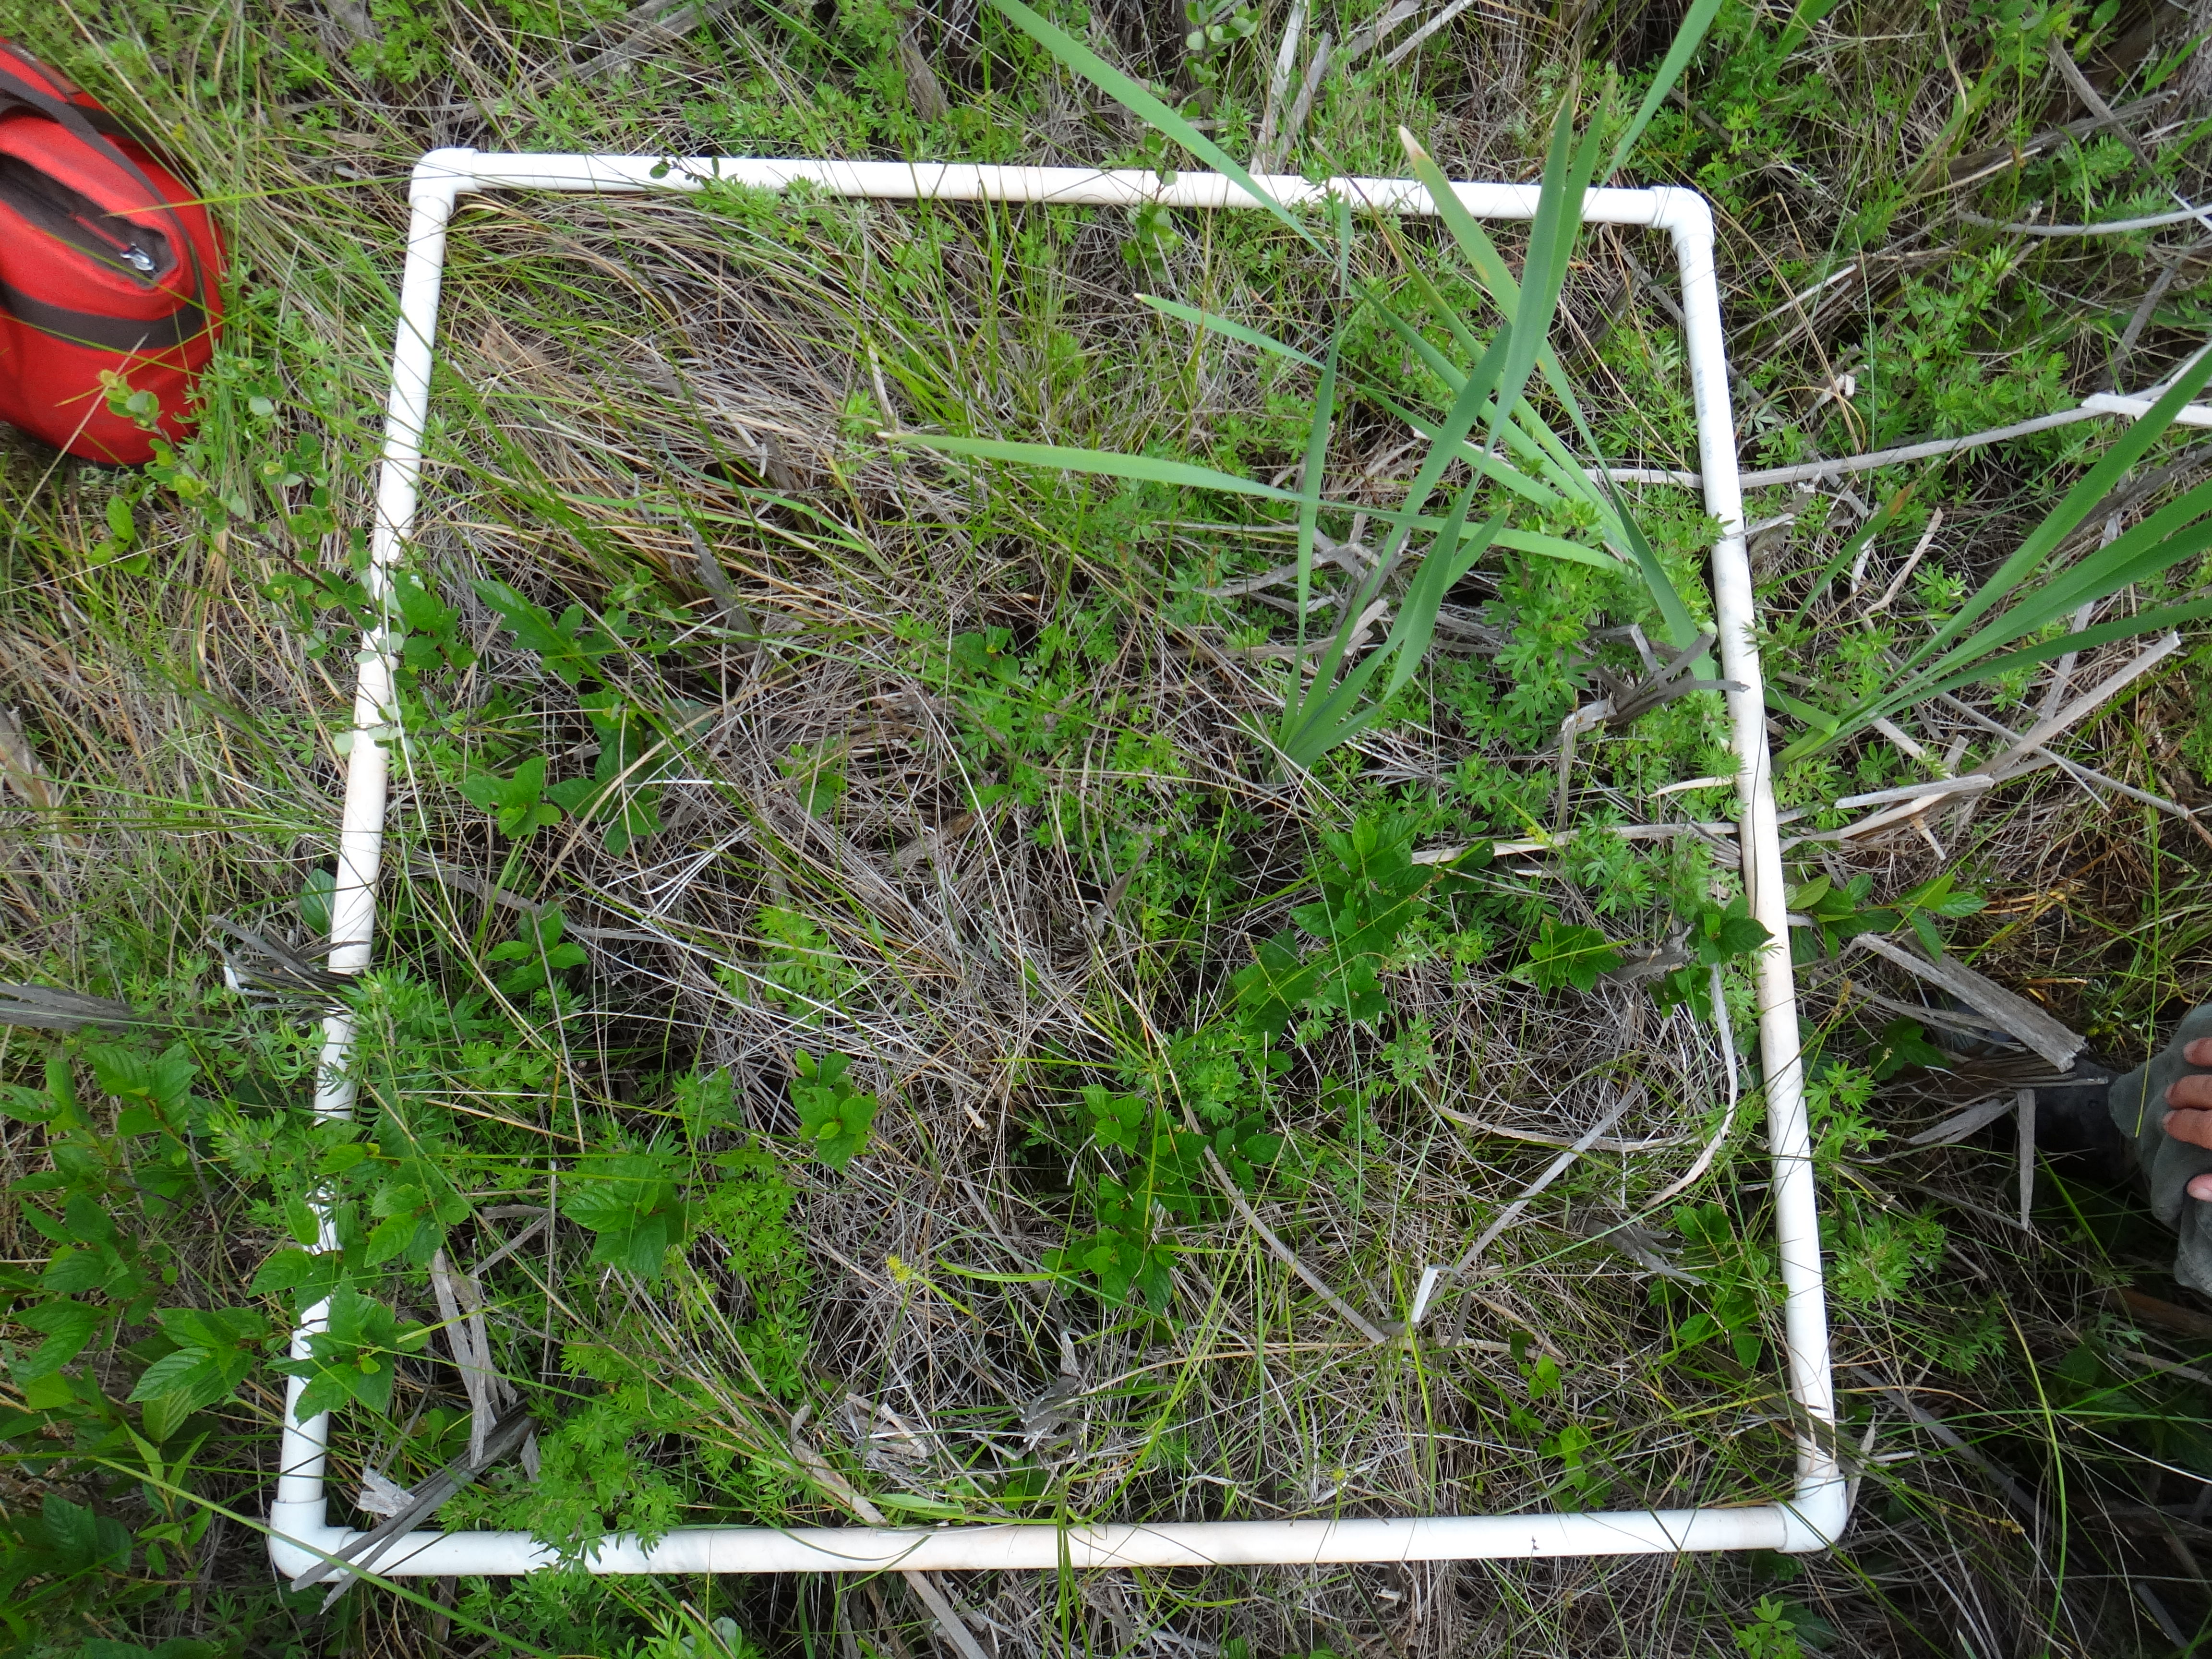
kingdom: Plantae
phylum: Tracheophyta
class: Magnoliopsida
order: Ericales
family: Balsaminaceae
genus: Impatiens
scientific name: Impatiens capensis
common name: Orange balsam
